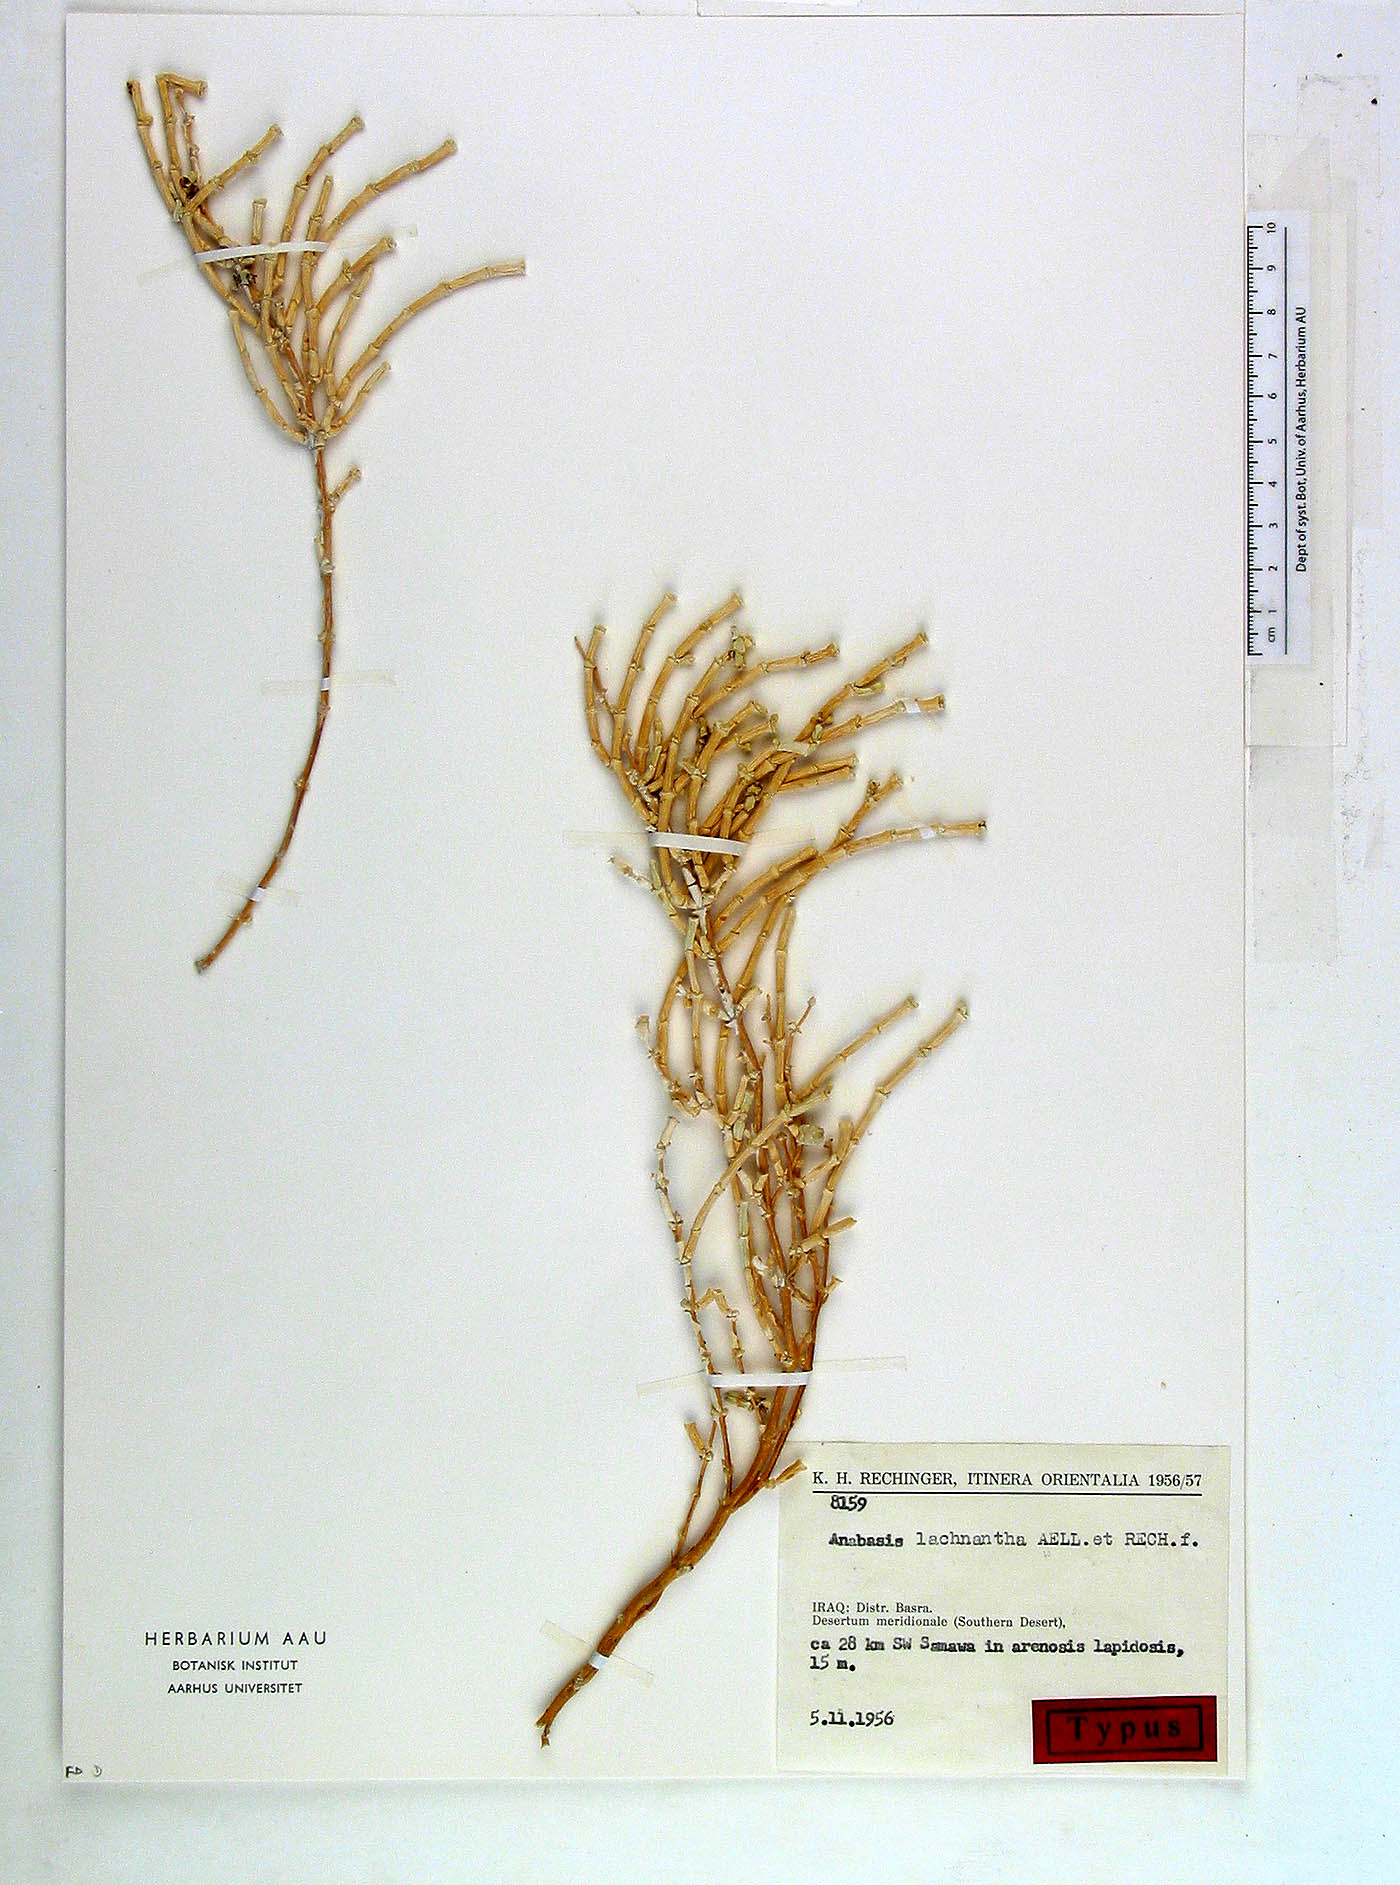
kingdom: Plantae
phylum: Tracheophyta
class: Magnoliopsida
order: Caryophyllales
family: Amaranthaceae
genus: Anabasis
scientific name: Anabasis lachnantha
